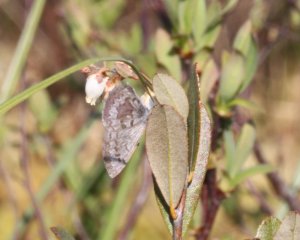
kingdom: Animalia
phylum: Arthropoda
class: Insecta
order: Lepidoptera
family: Lycaenidae
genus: Celastrina
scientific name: Celastrina lucia
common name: Northern Spring Azure
